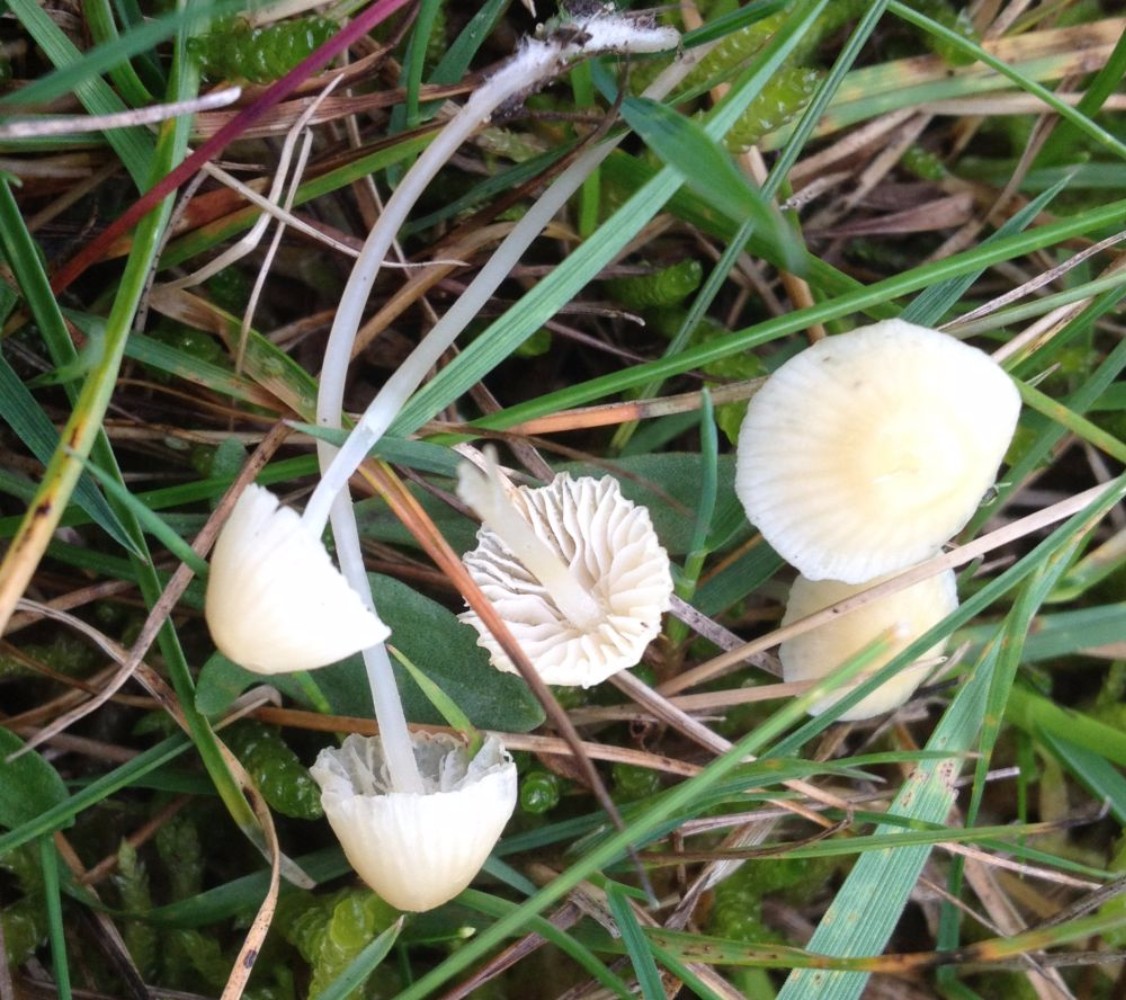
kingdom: Fungi
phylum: Basidiomycota
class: Agaricomycetes
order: Agaricales
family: Mycenaceae
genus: Atheniella
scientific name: Atheniella flavoalba
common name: gulhvid huesvamp
